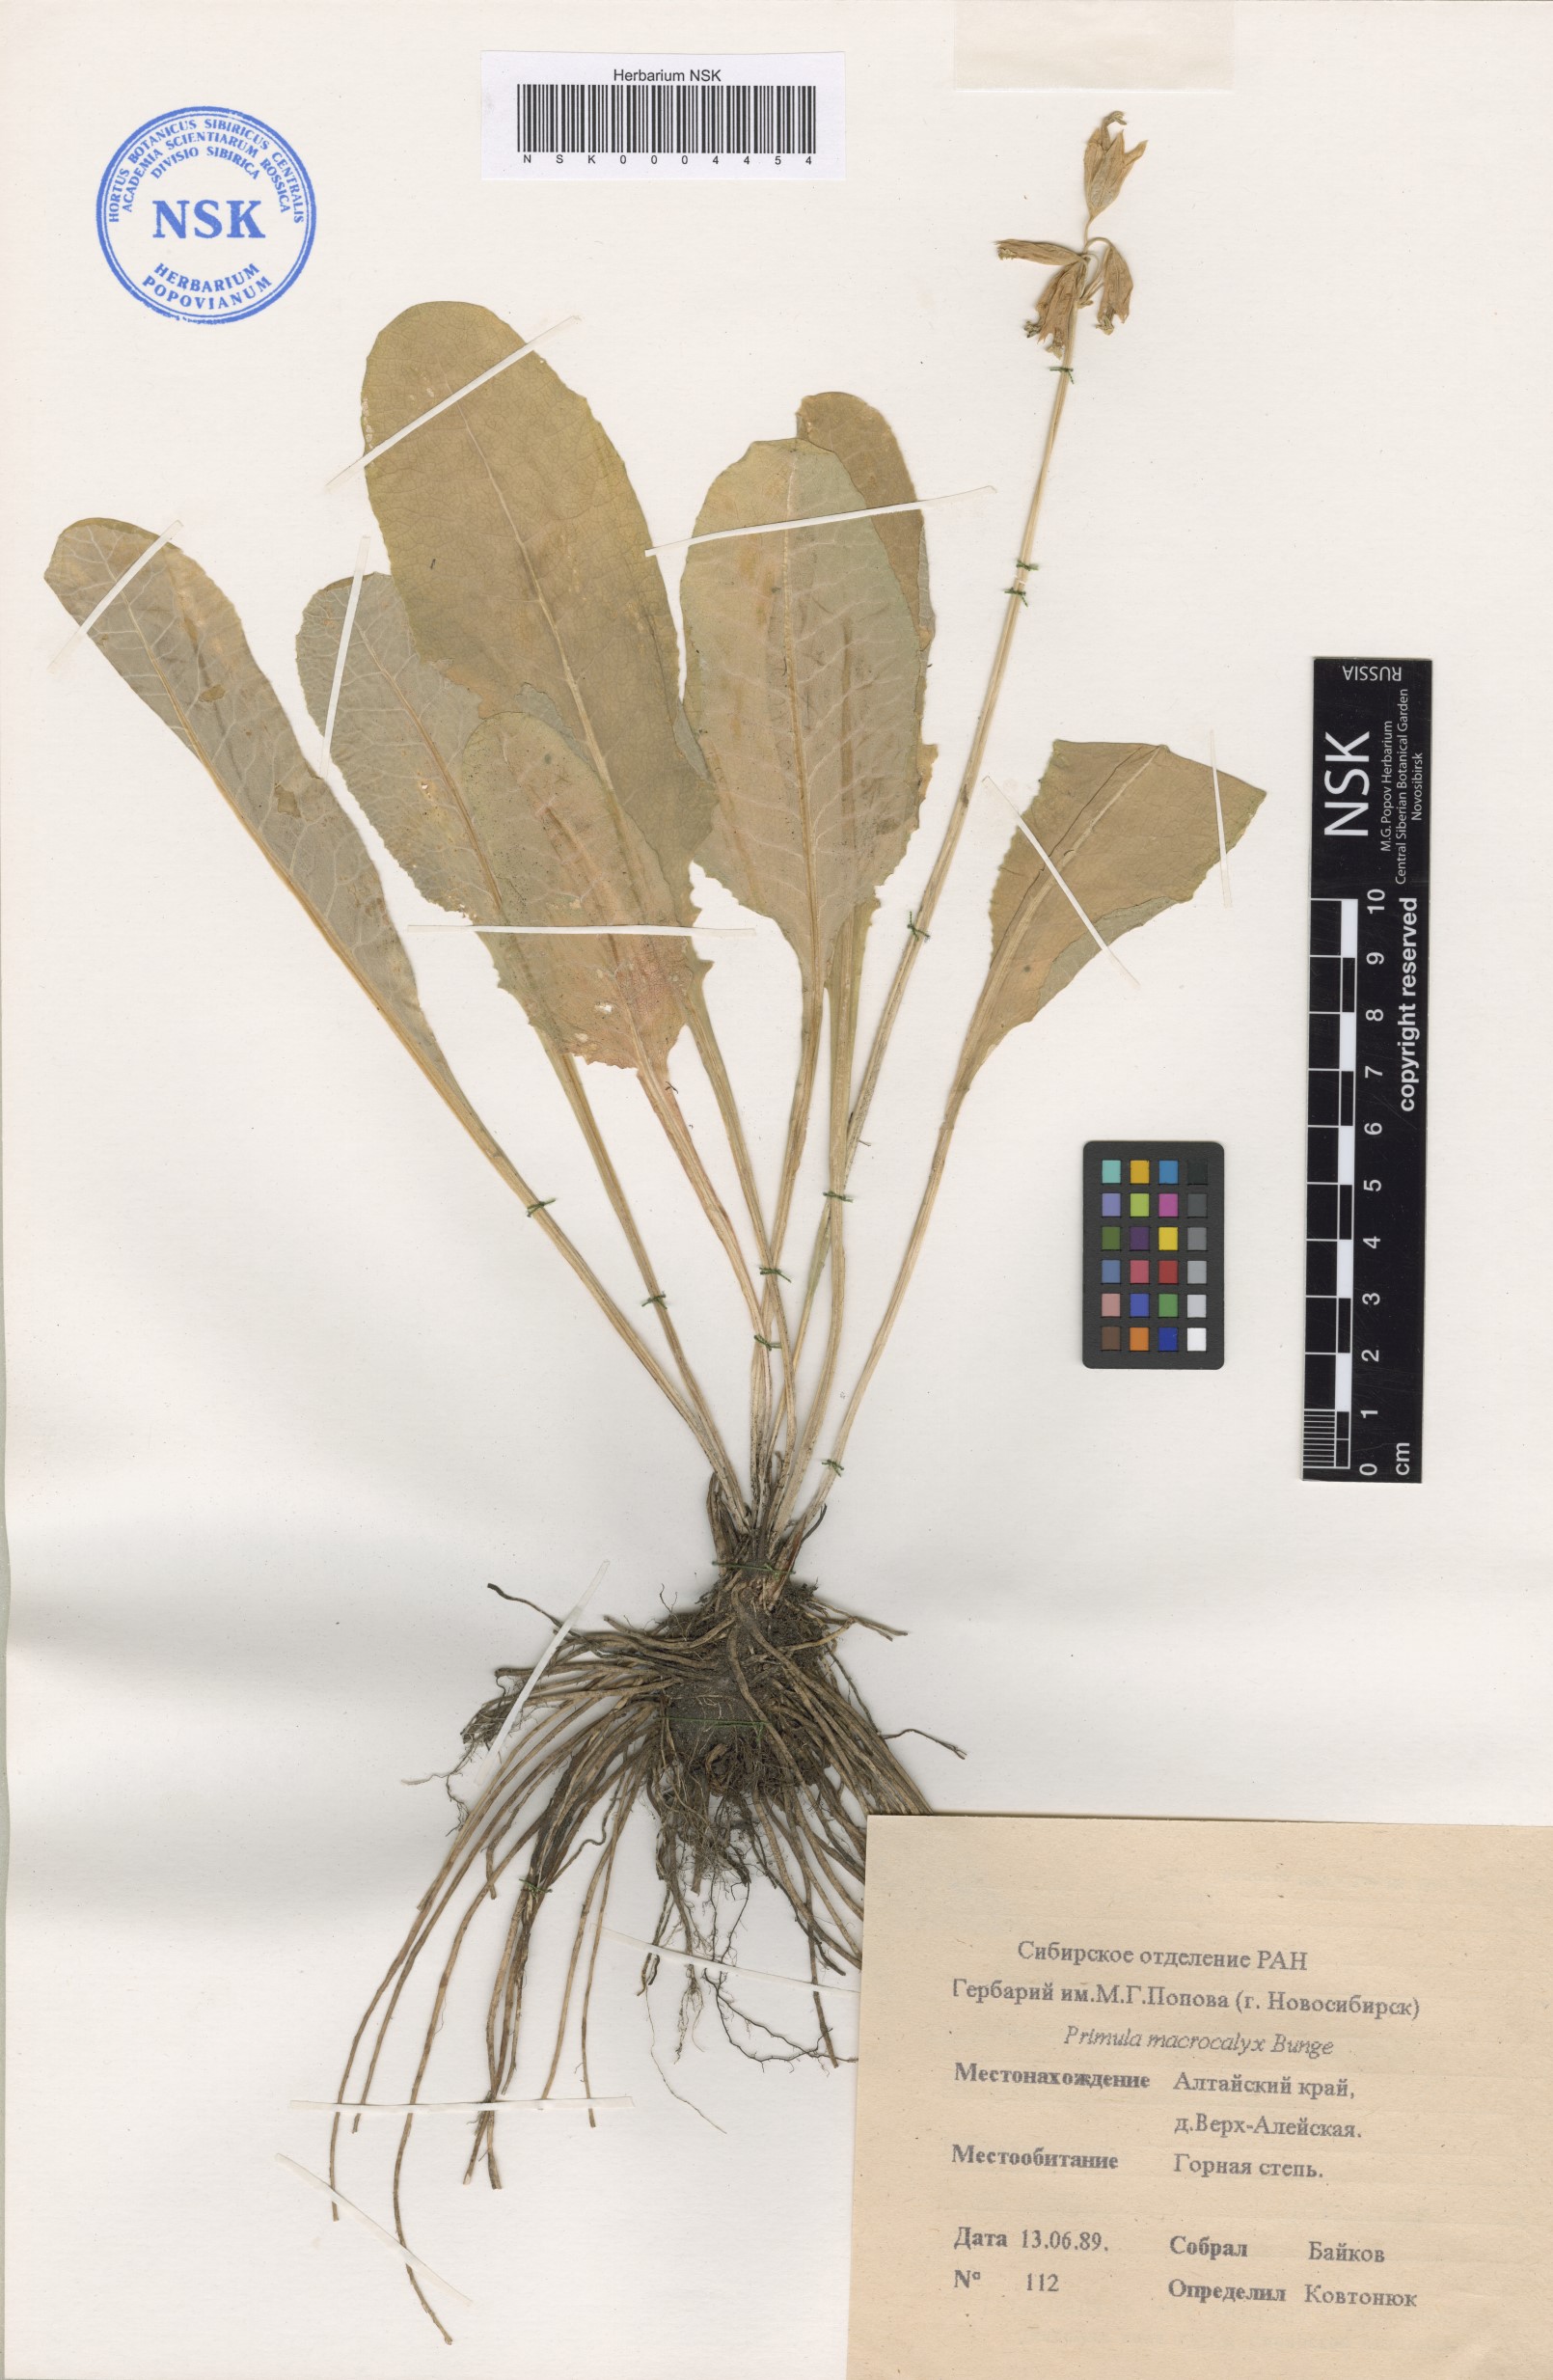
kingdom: Plantae
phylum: Tracheophyta
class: Magnoliopsida
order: Ericales
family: Primulaceae
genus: Primula
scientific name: Primula veris
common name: Cowslip
